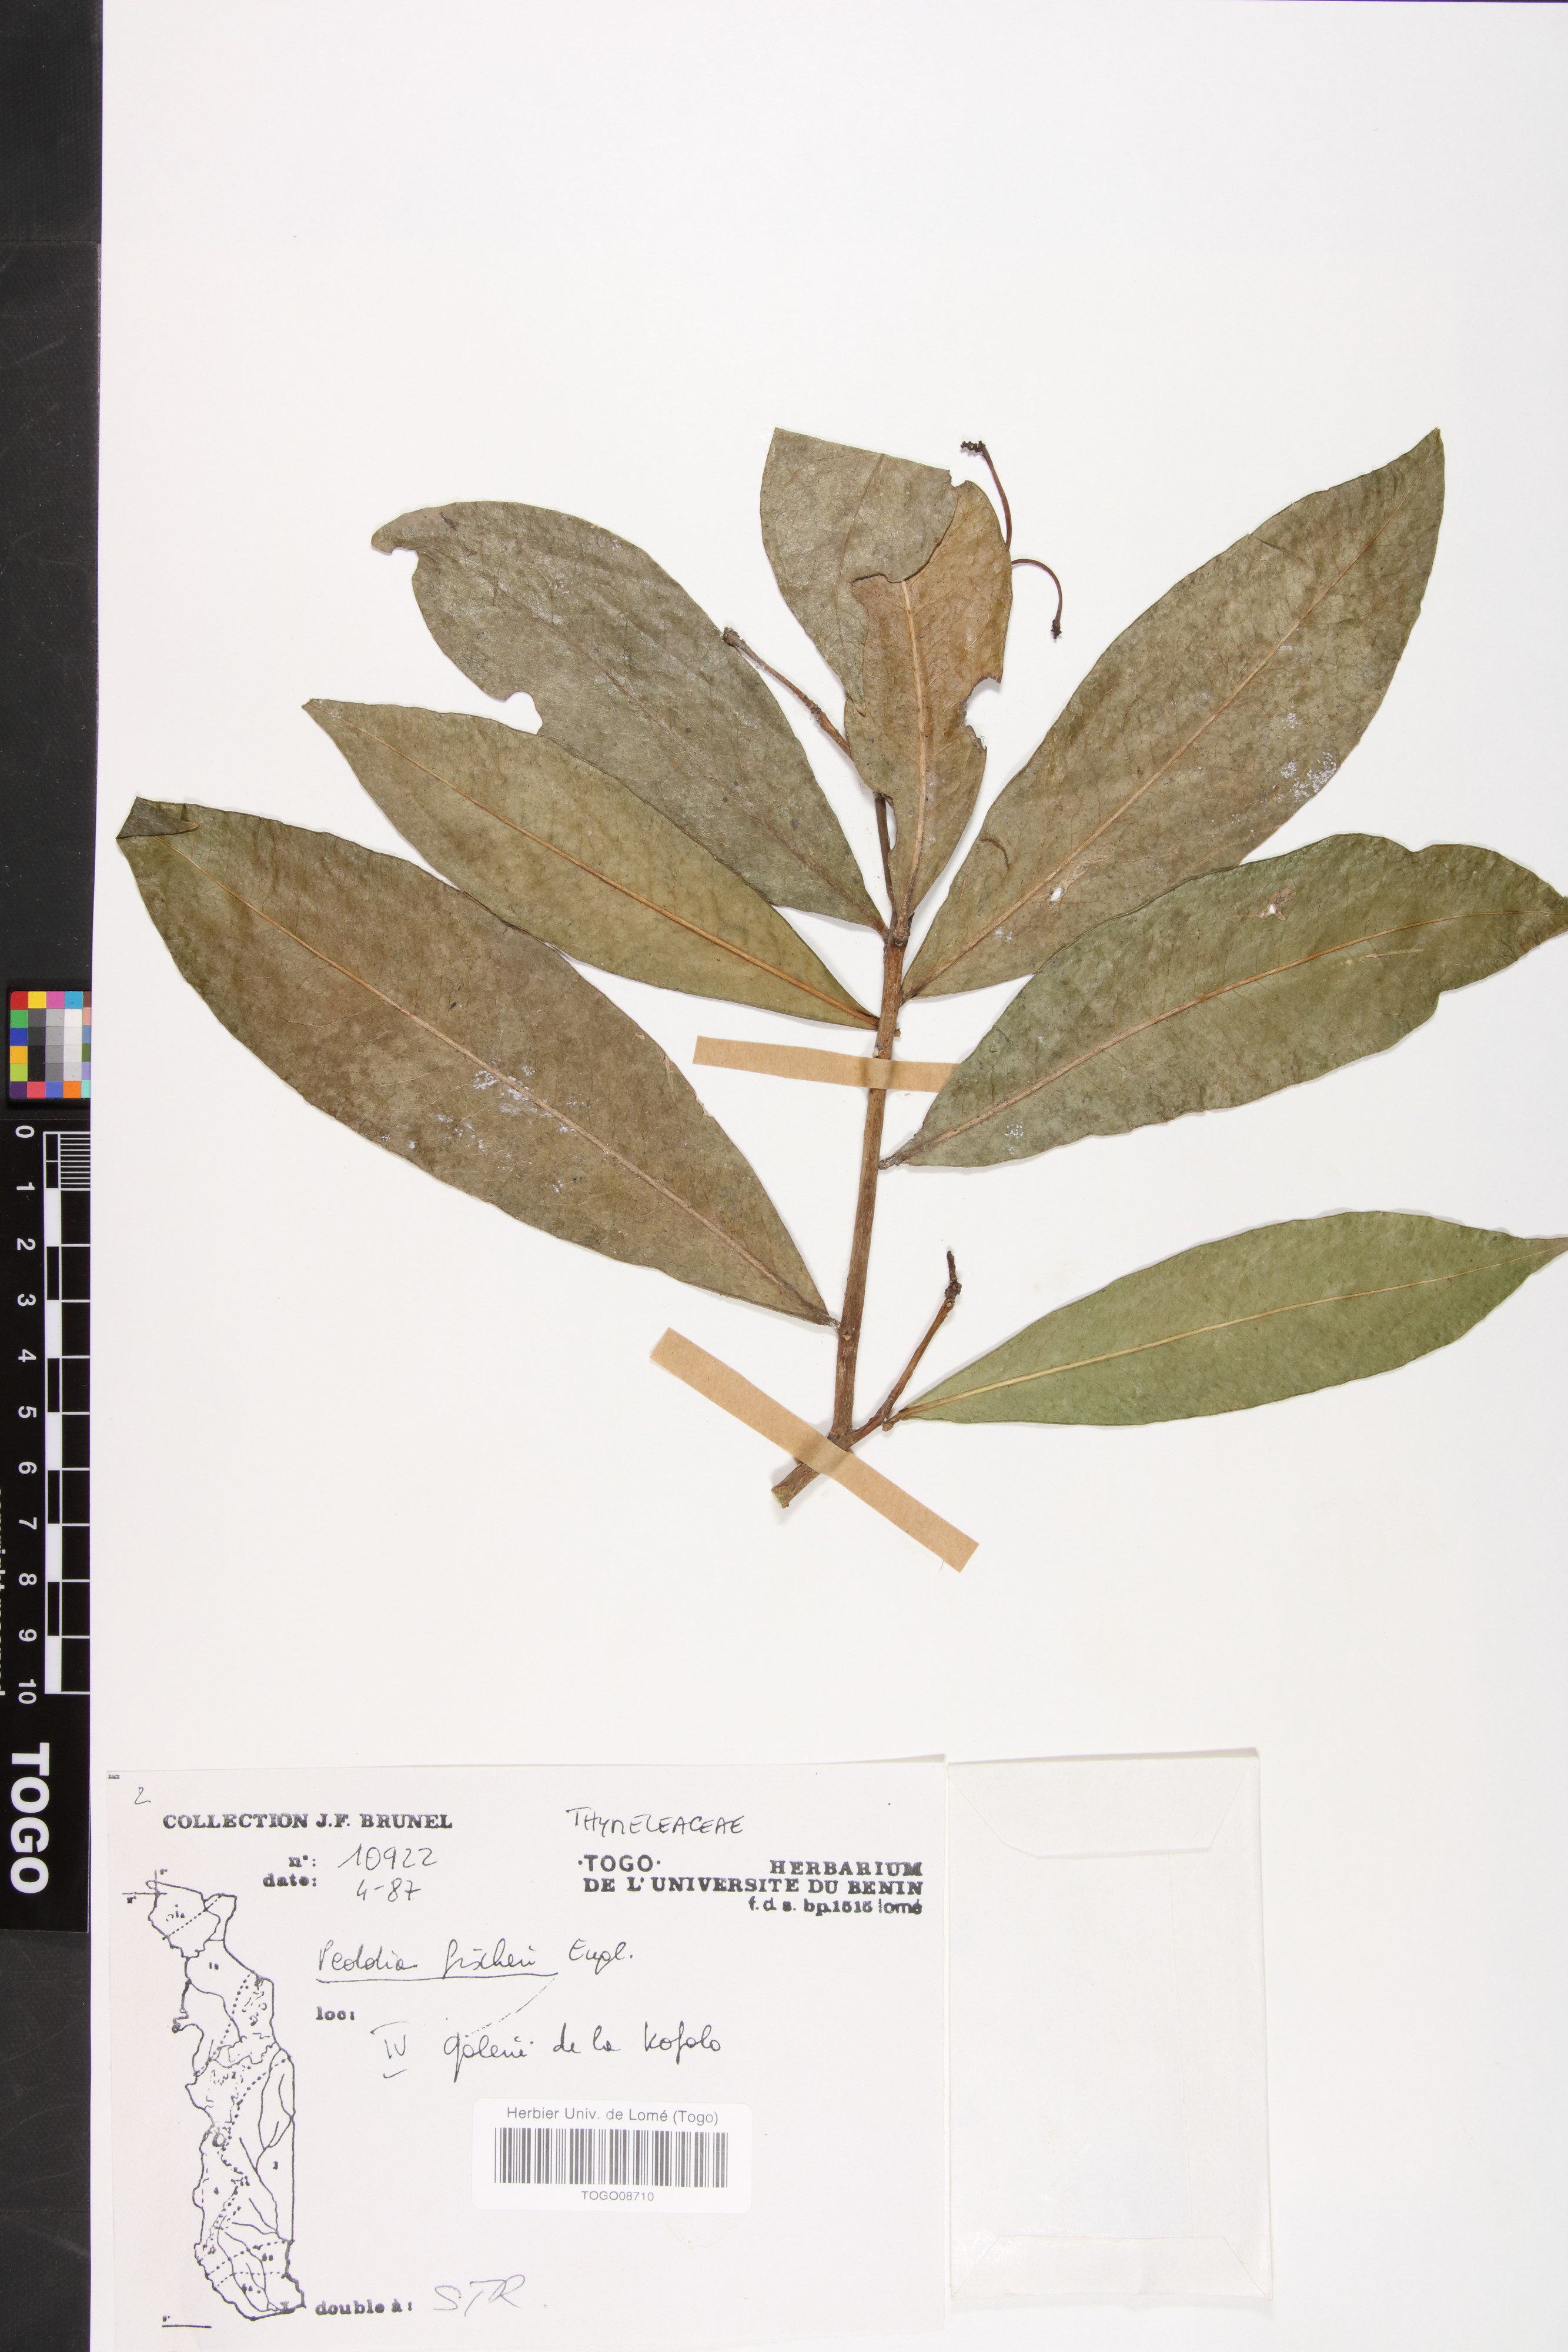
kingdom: Plantae
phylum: Tracheophyta
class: Magnoliopsida
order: Malvales
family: Thymelaeaceae
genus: Peddiea
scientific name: Peddiea fischeri
